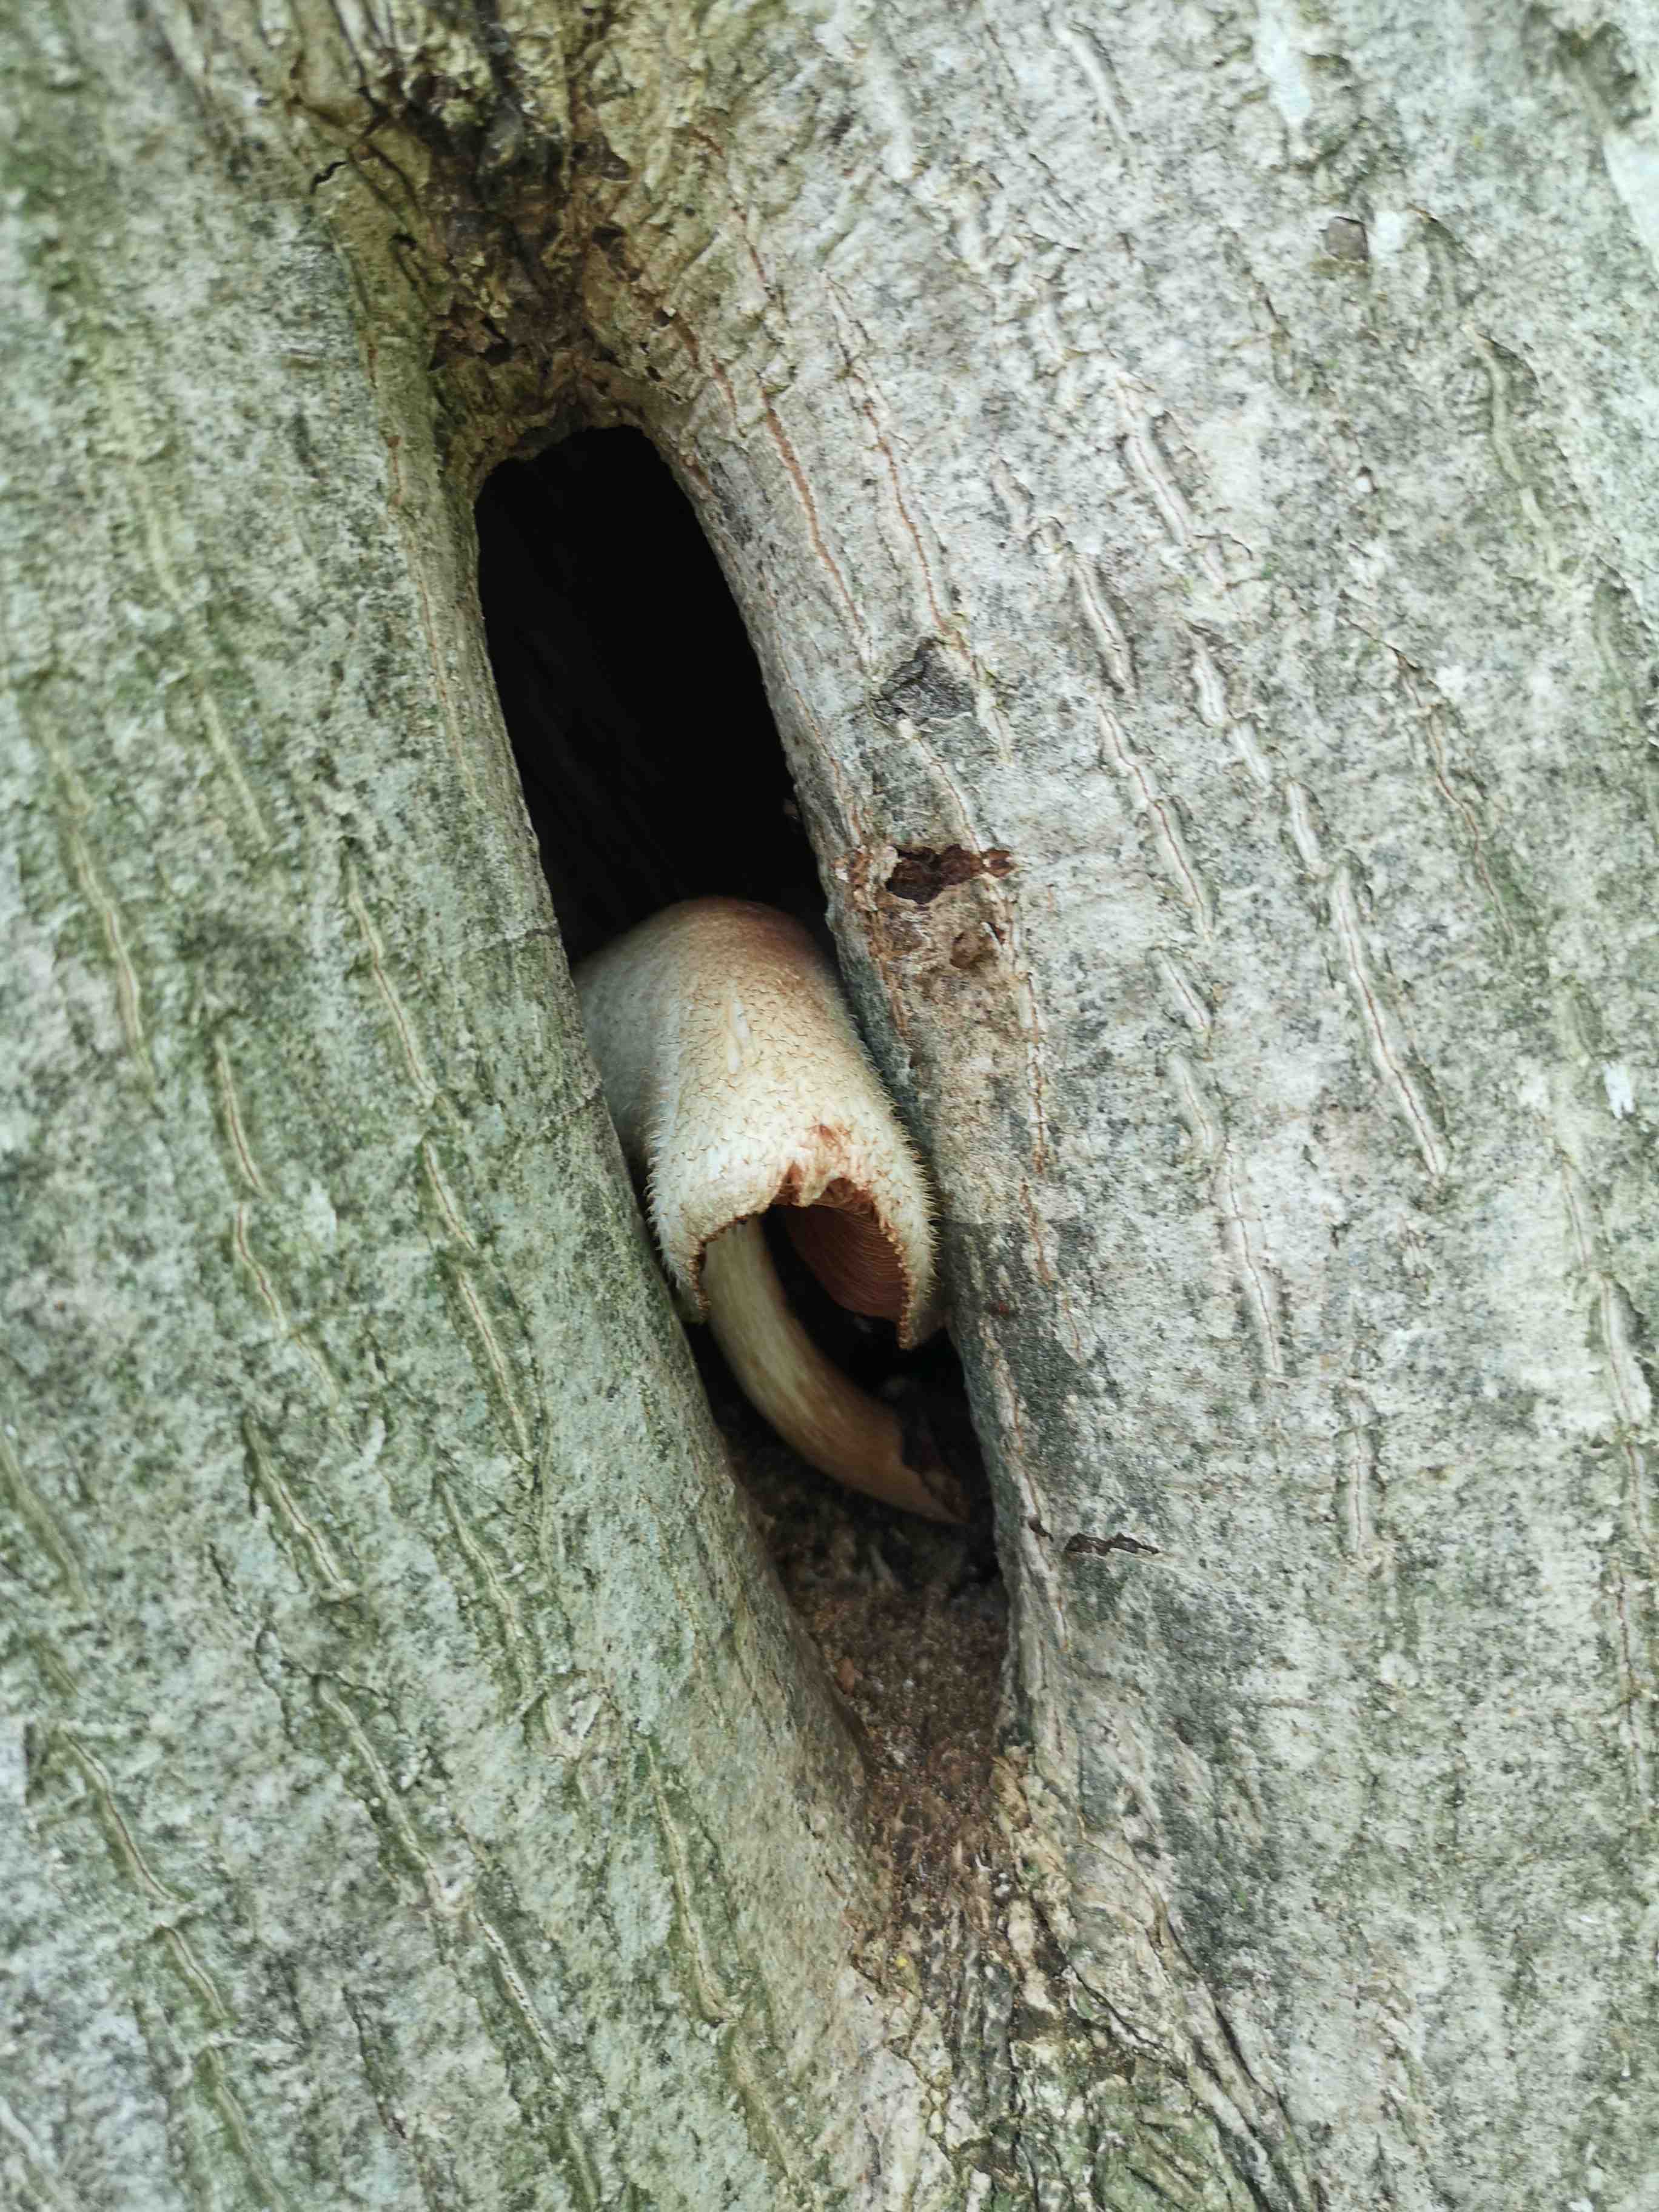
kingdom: Fungi
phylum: Basidiomycota
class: Agaricomycetes
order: Agaricales
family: Pluteaceae
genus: Volvariella
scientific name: Volvariella bombycina
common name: silkehåret posesvamp
